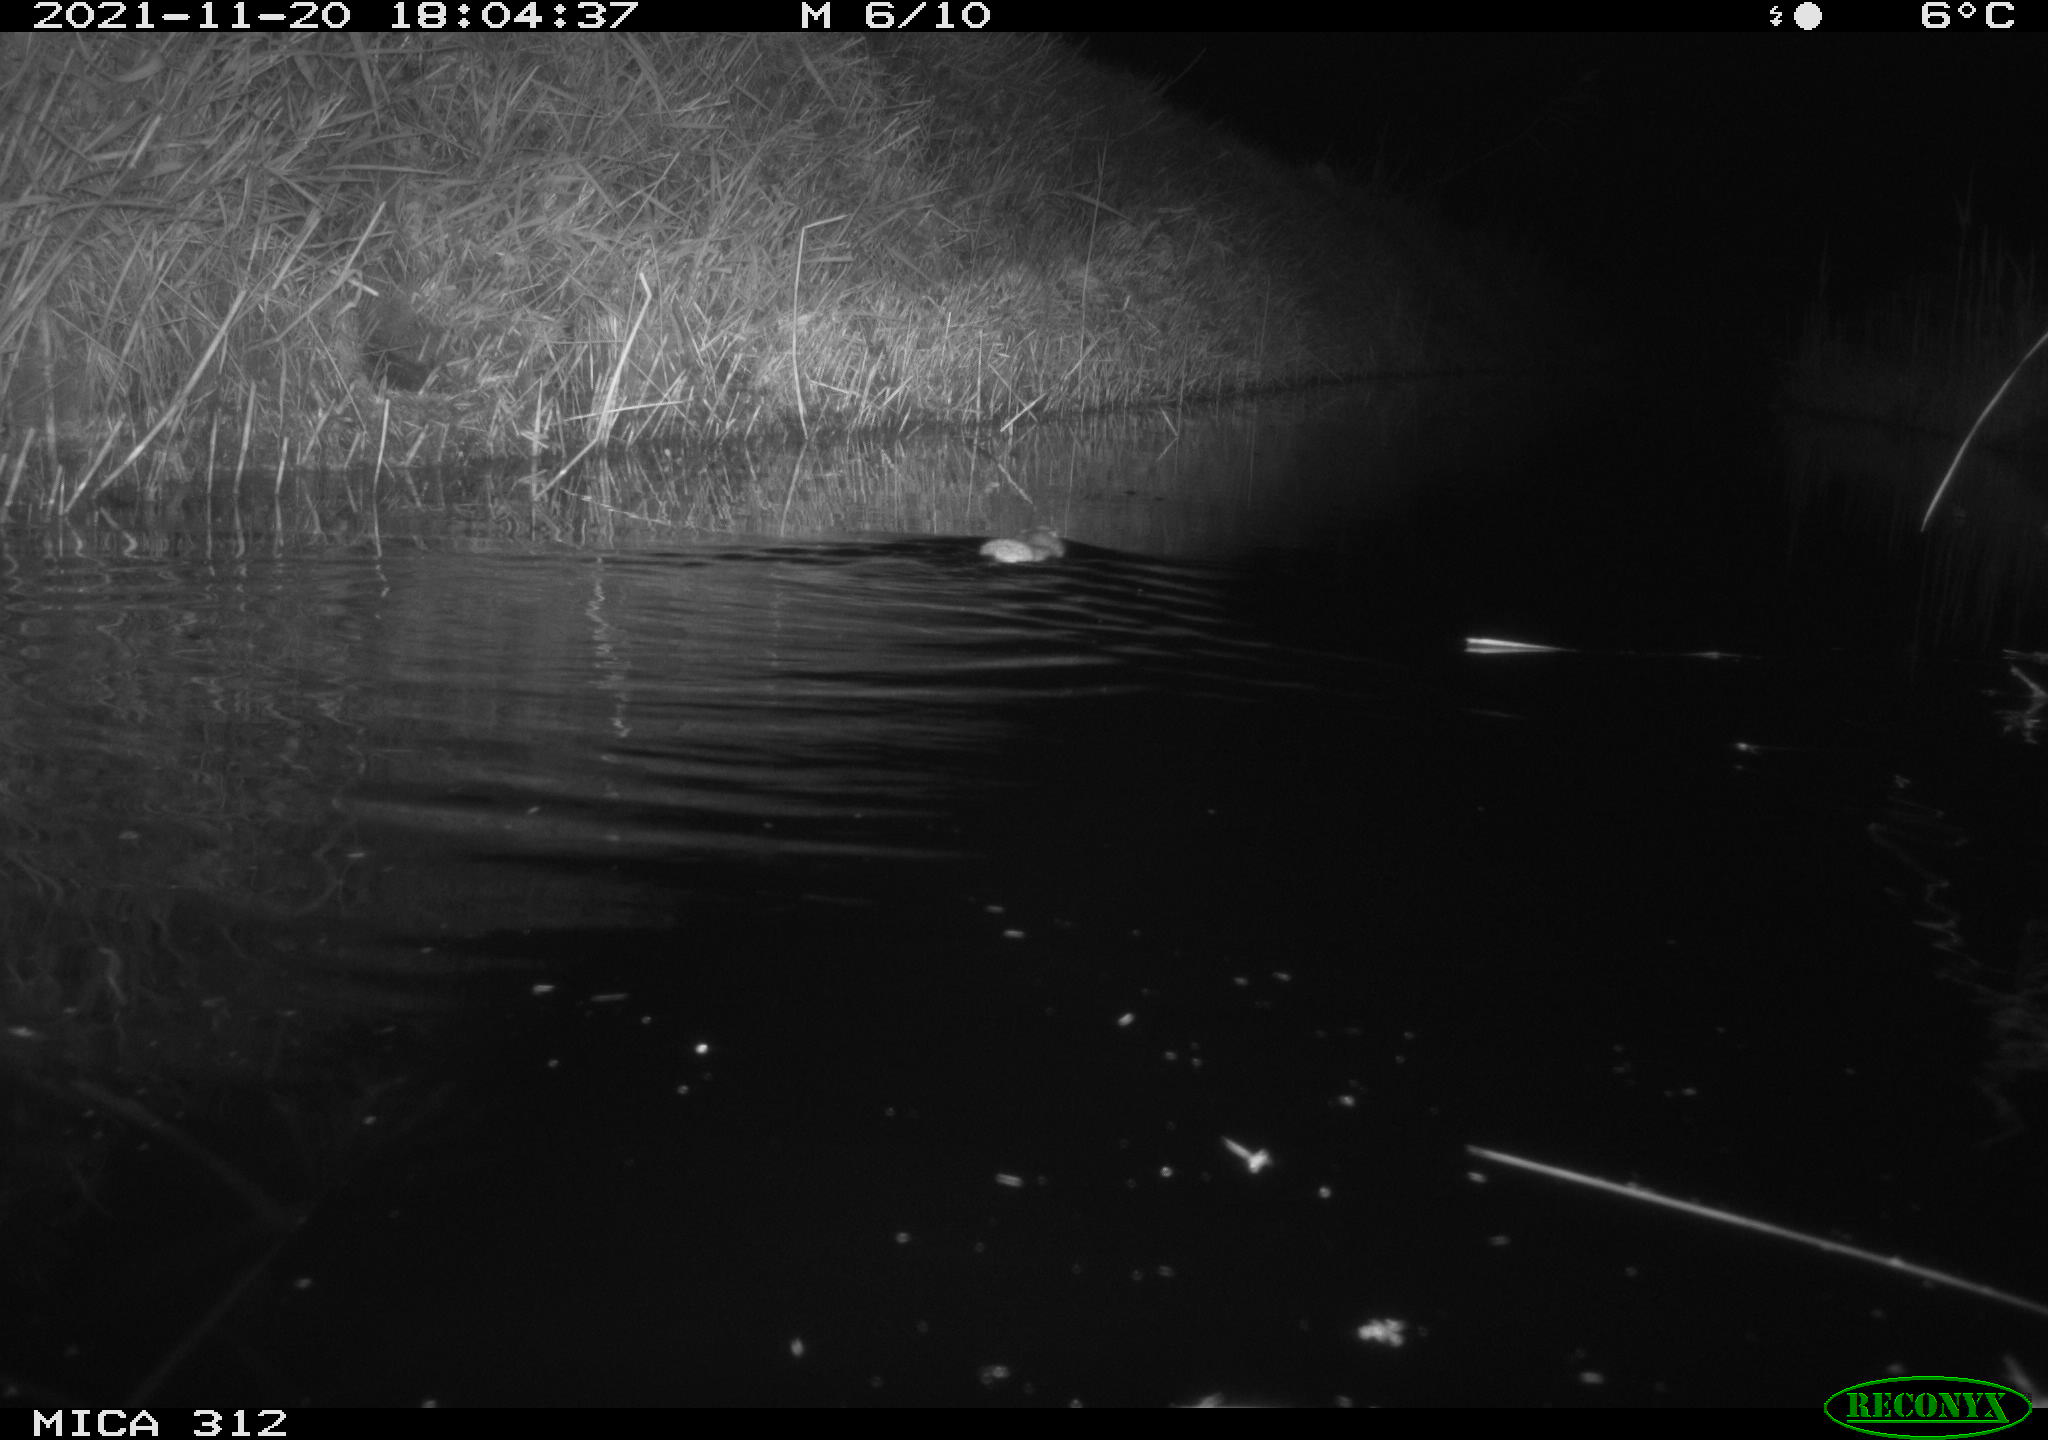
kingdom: Animalia
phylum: Chordata
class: Mammalia
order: Rodentia
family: Muridae
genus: Rattus
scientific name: Rattus norvegicus
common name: Brown rat
